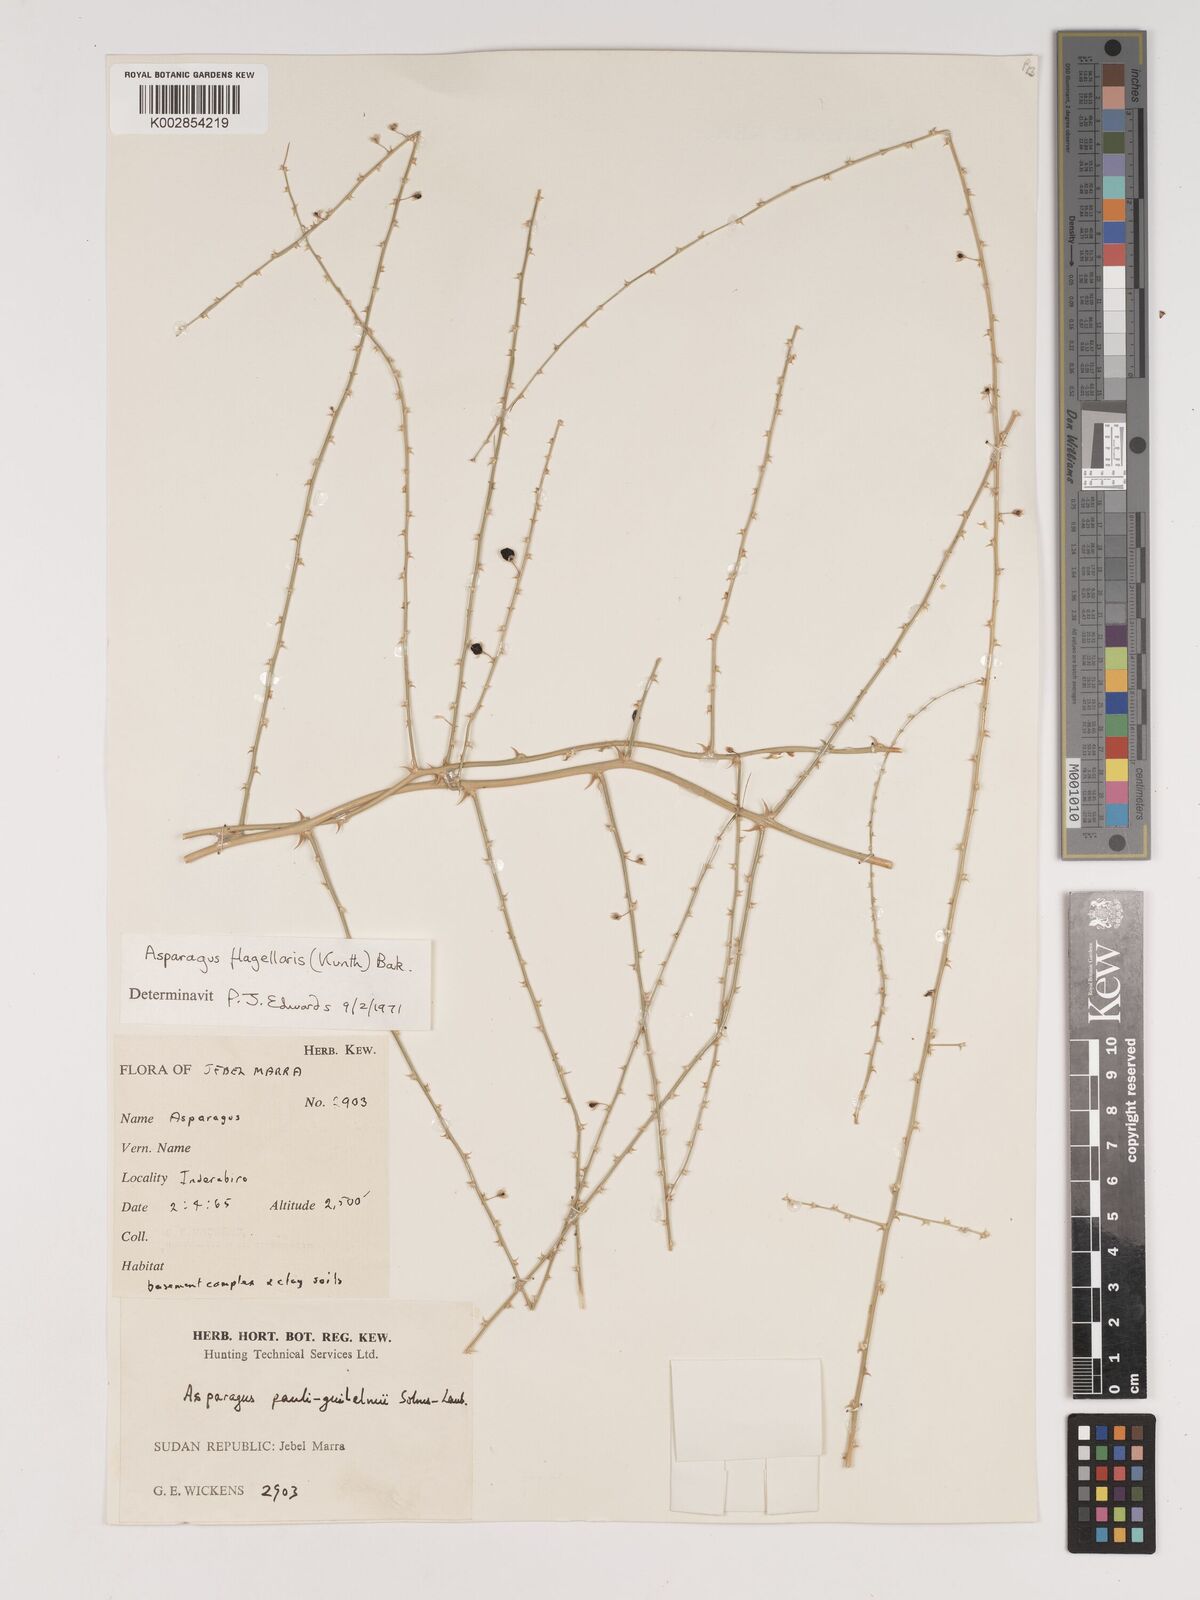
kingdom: Plantae
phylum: Tracheophyta
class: Liliopsida
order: Asparagales
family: Asparagaceae
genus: Asparagus
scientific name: Asparagus flagellaris
